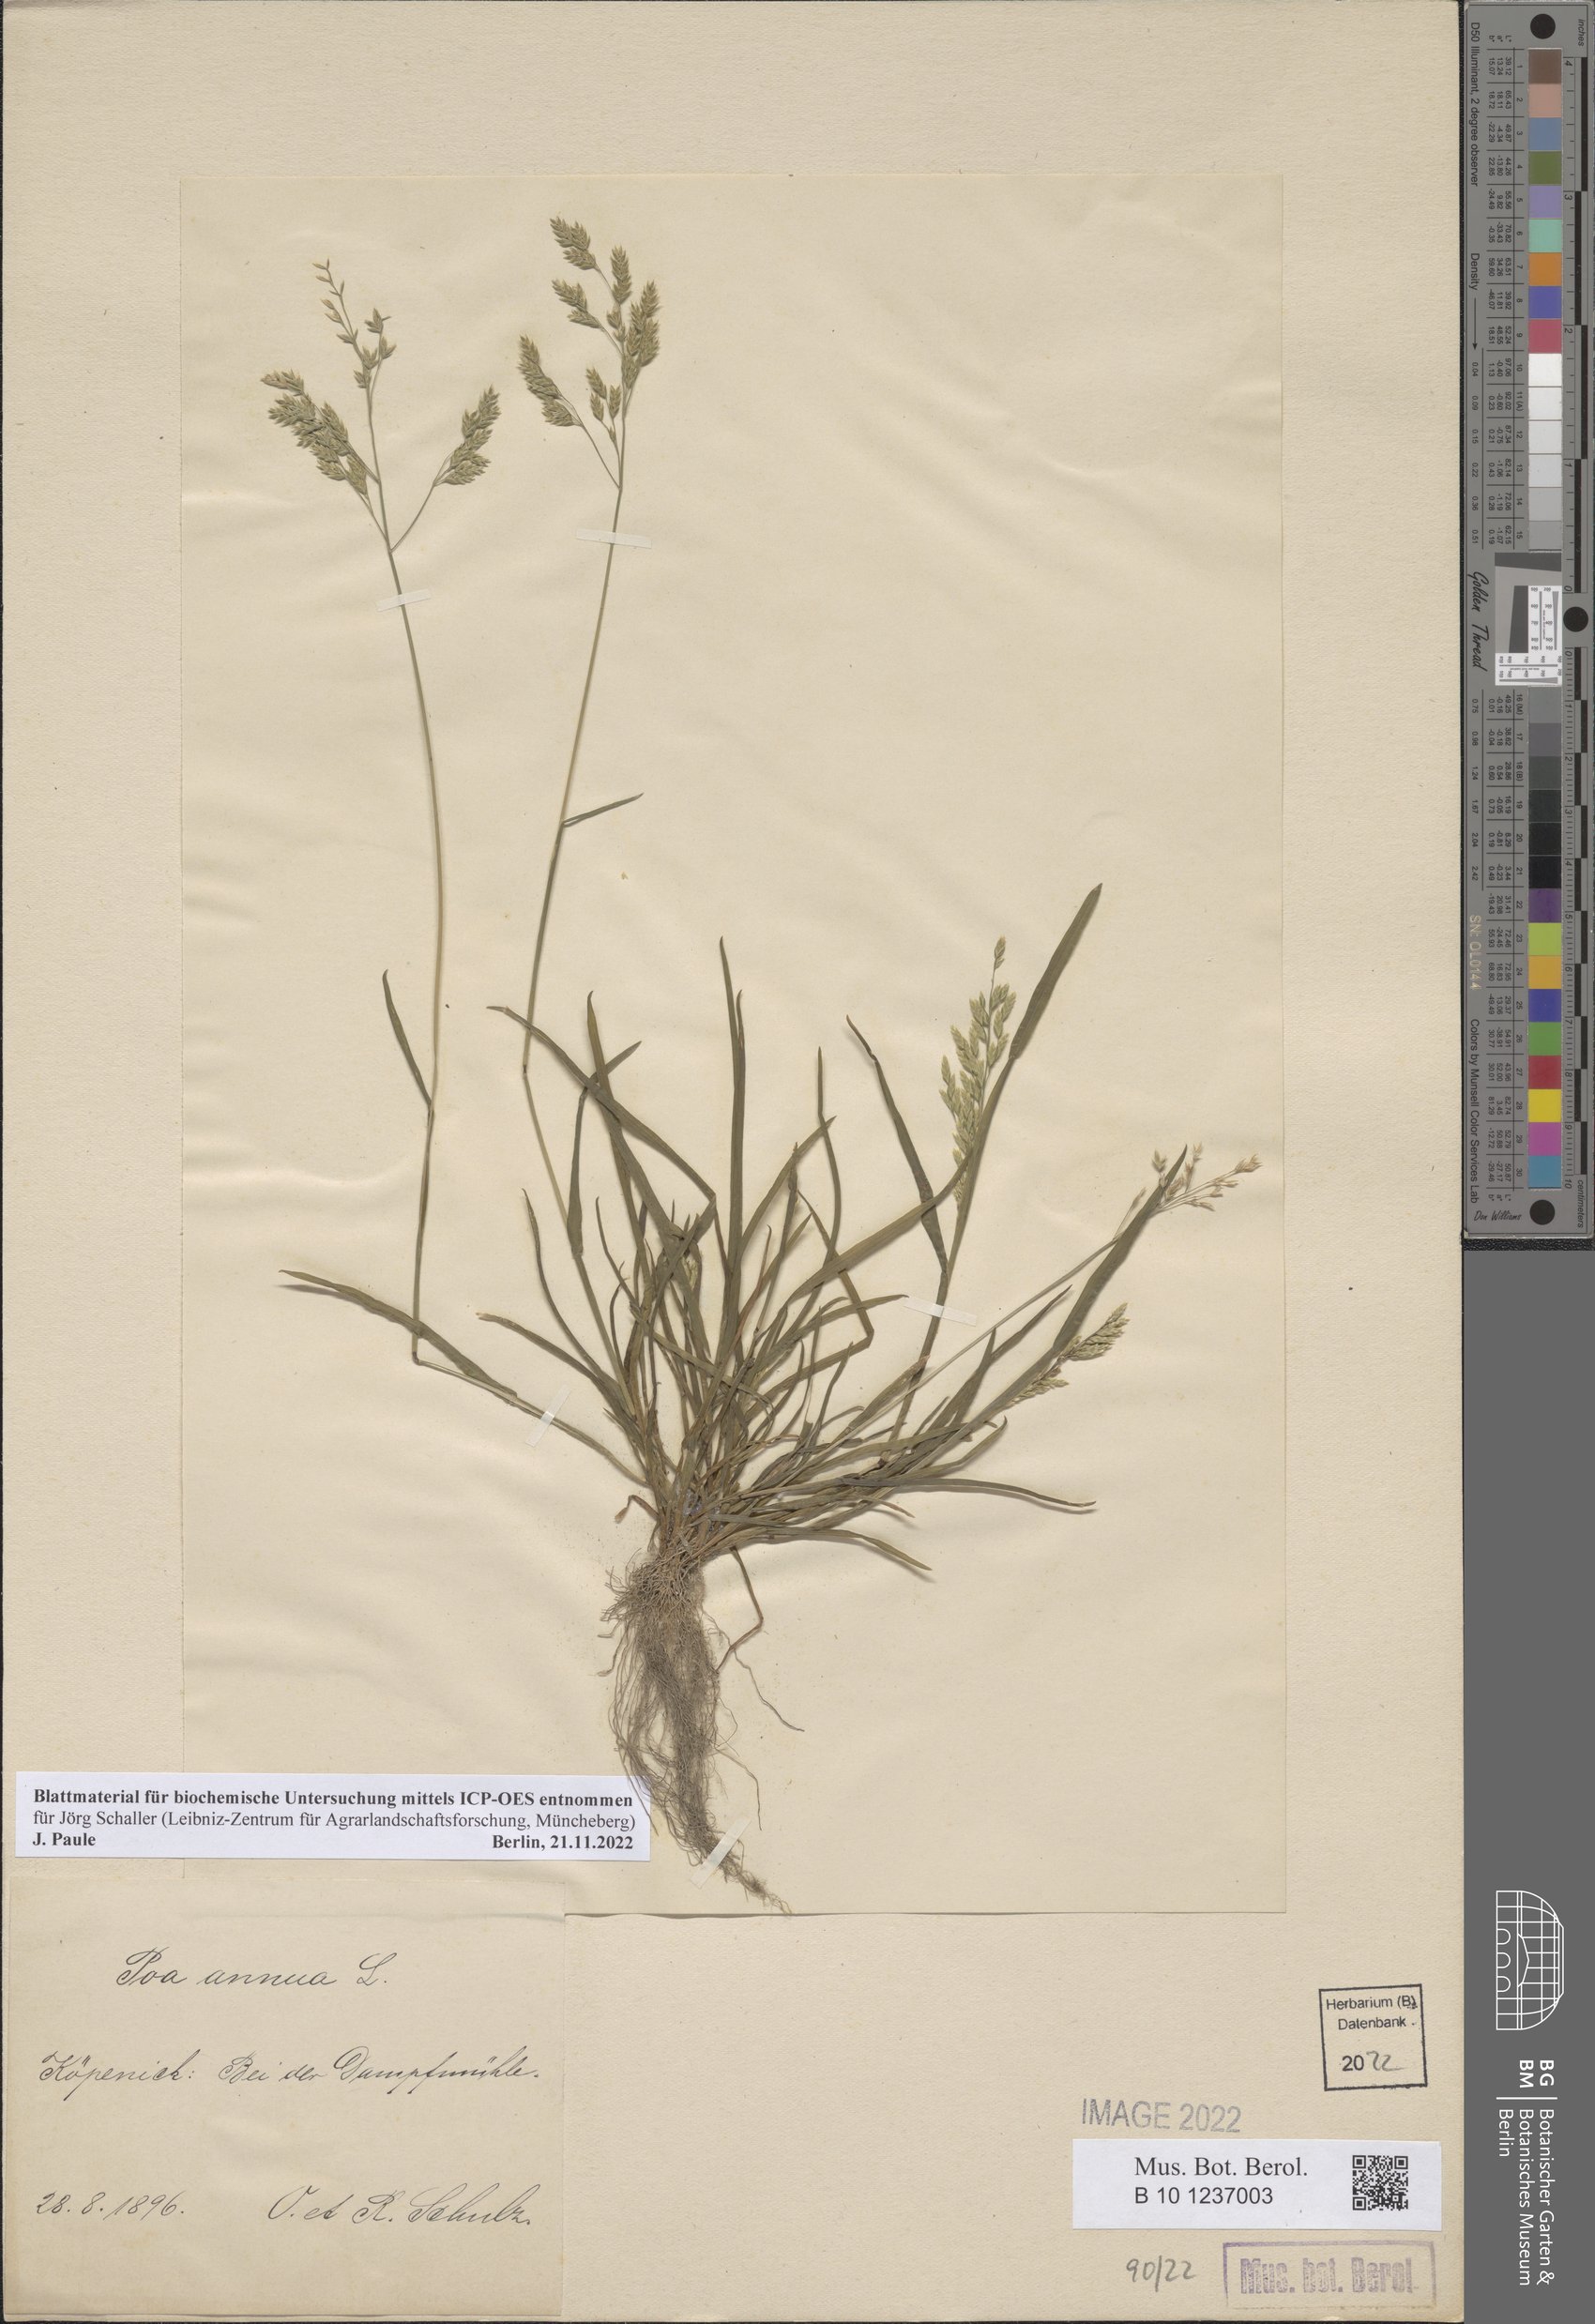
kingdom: Plantae
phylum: Tracheophyta
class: Liliopsida
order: Poales
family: Poaceae
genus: Poa
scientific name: Poa annua
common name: Annual bluegrass
